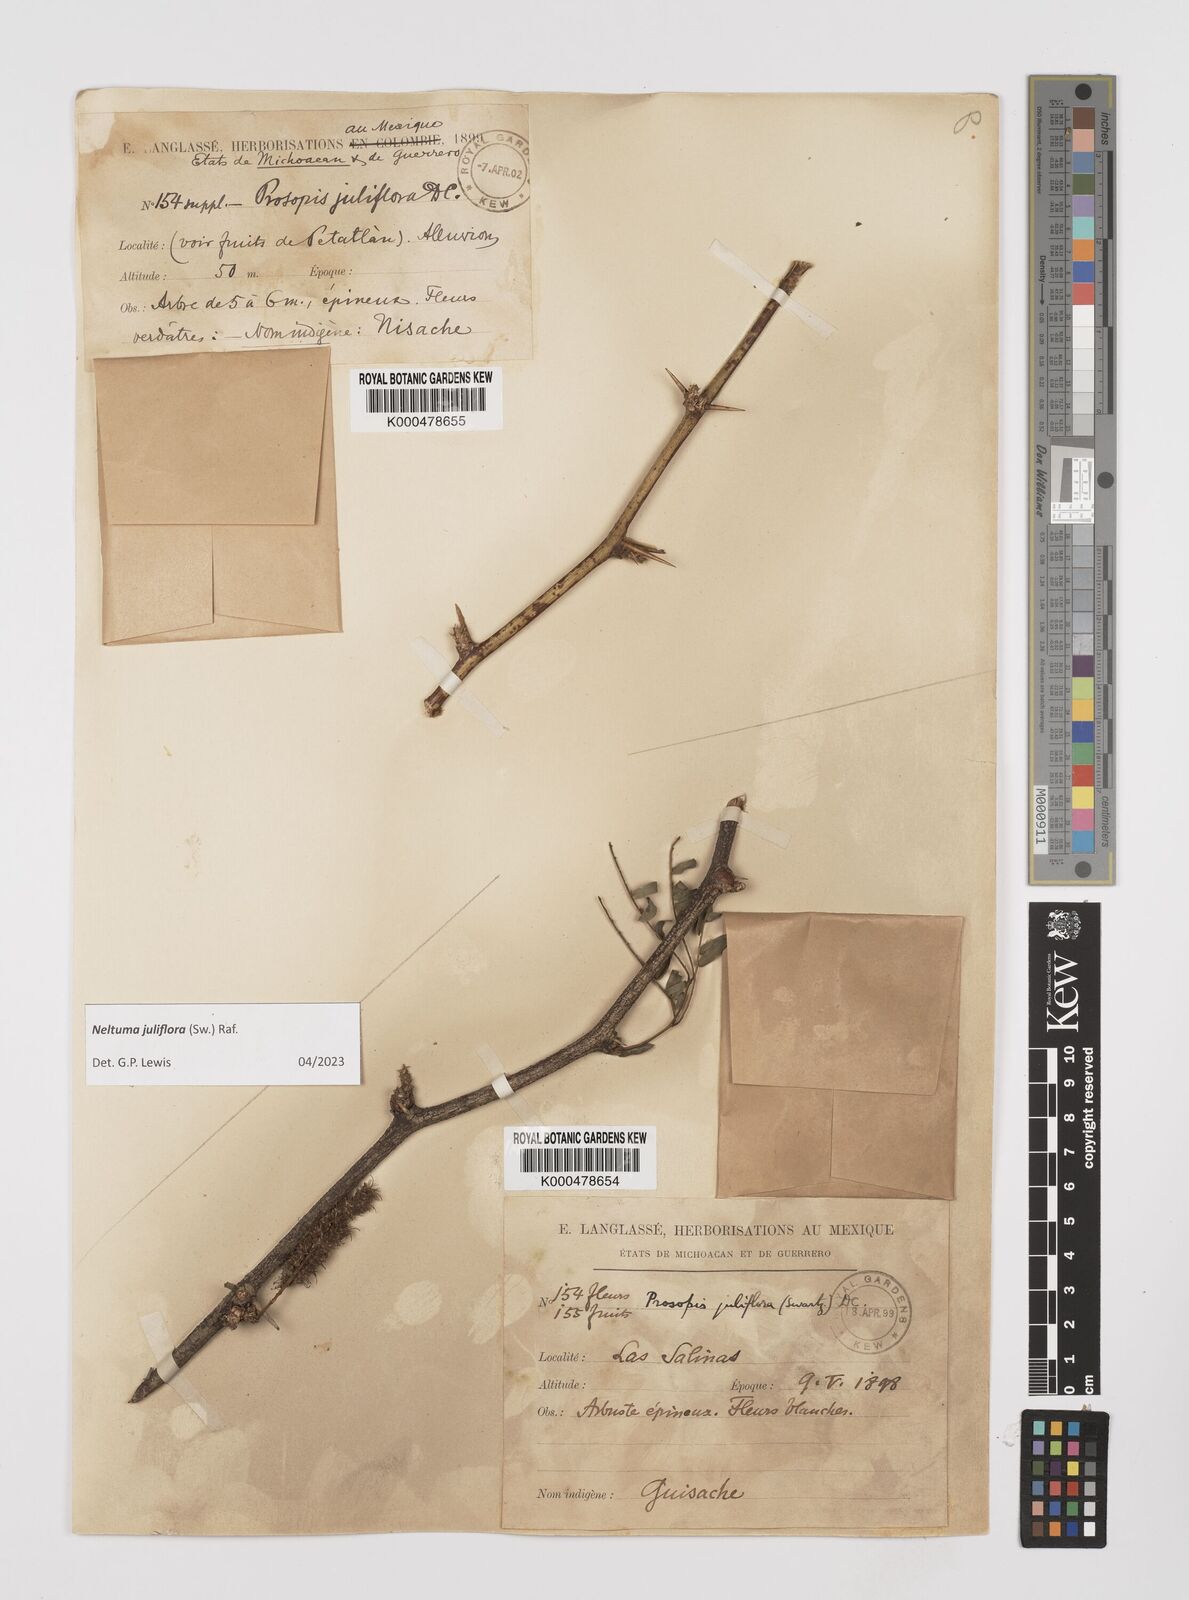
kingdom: Plantae
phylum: Tracheophyta
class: Magnoliopsida
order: Fabales
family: Fabaceae
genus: Prosopis
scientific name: Prosopis juliflora
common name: Mesquite
